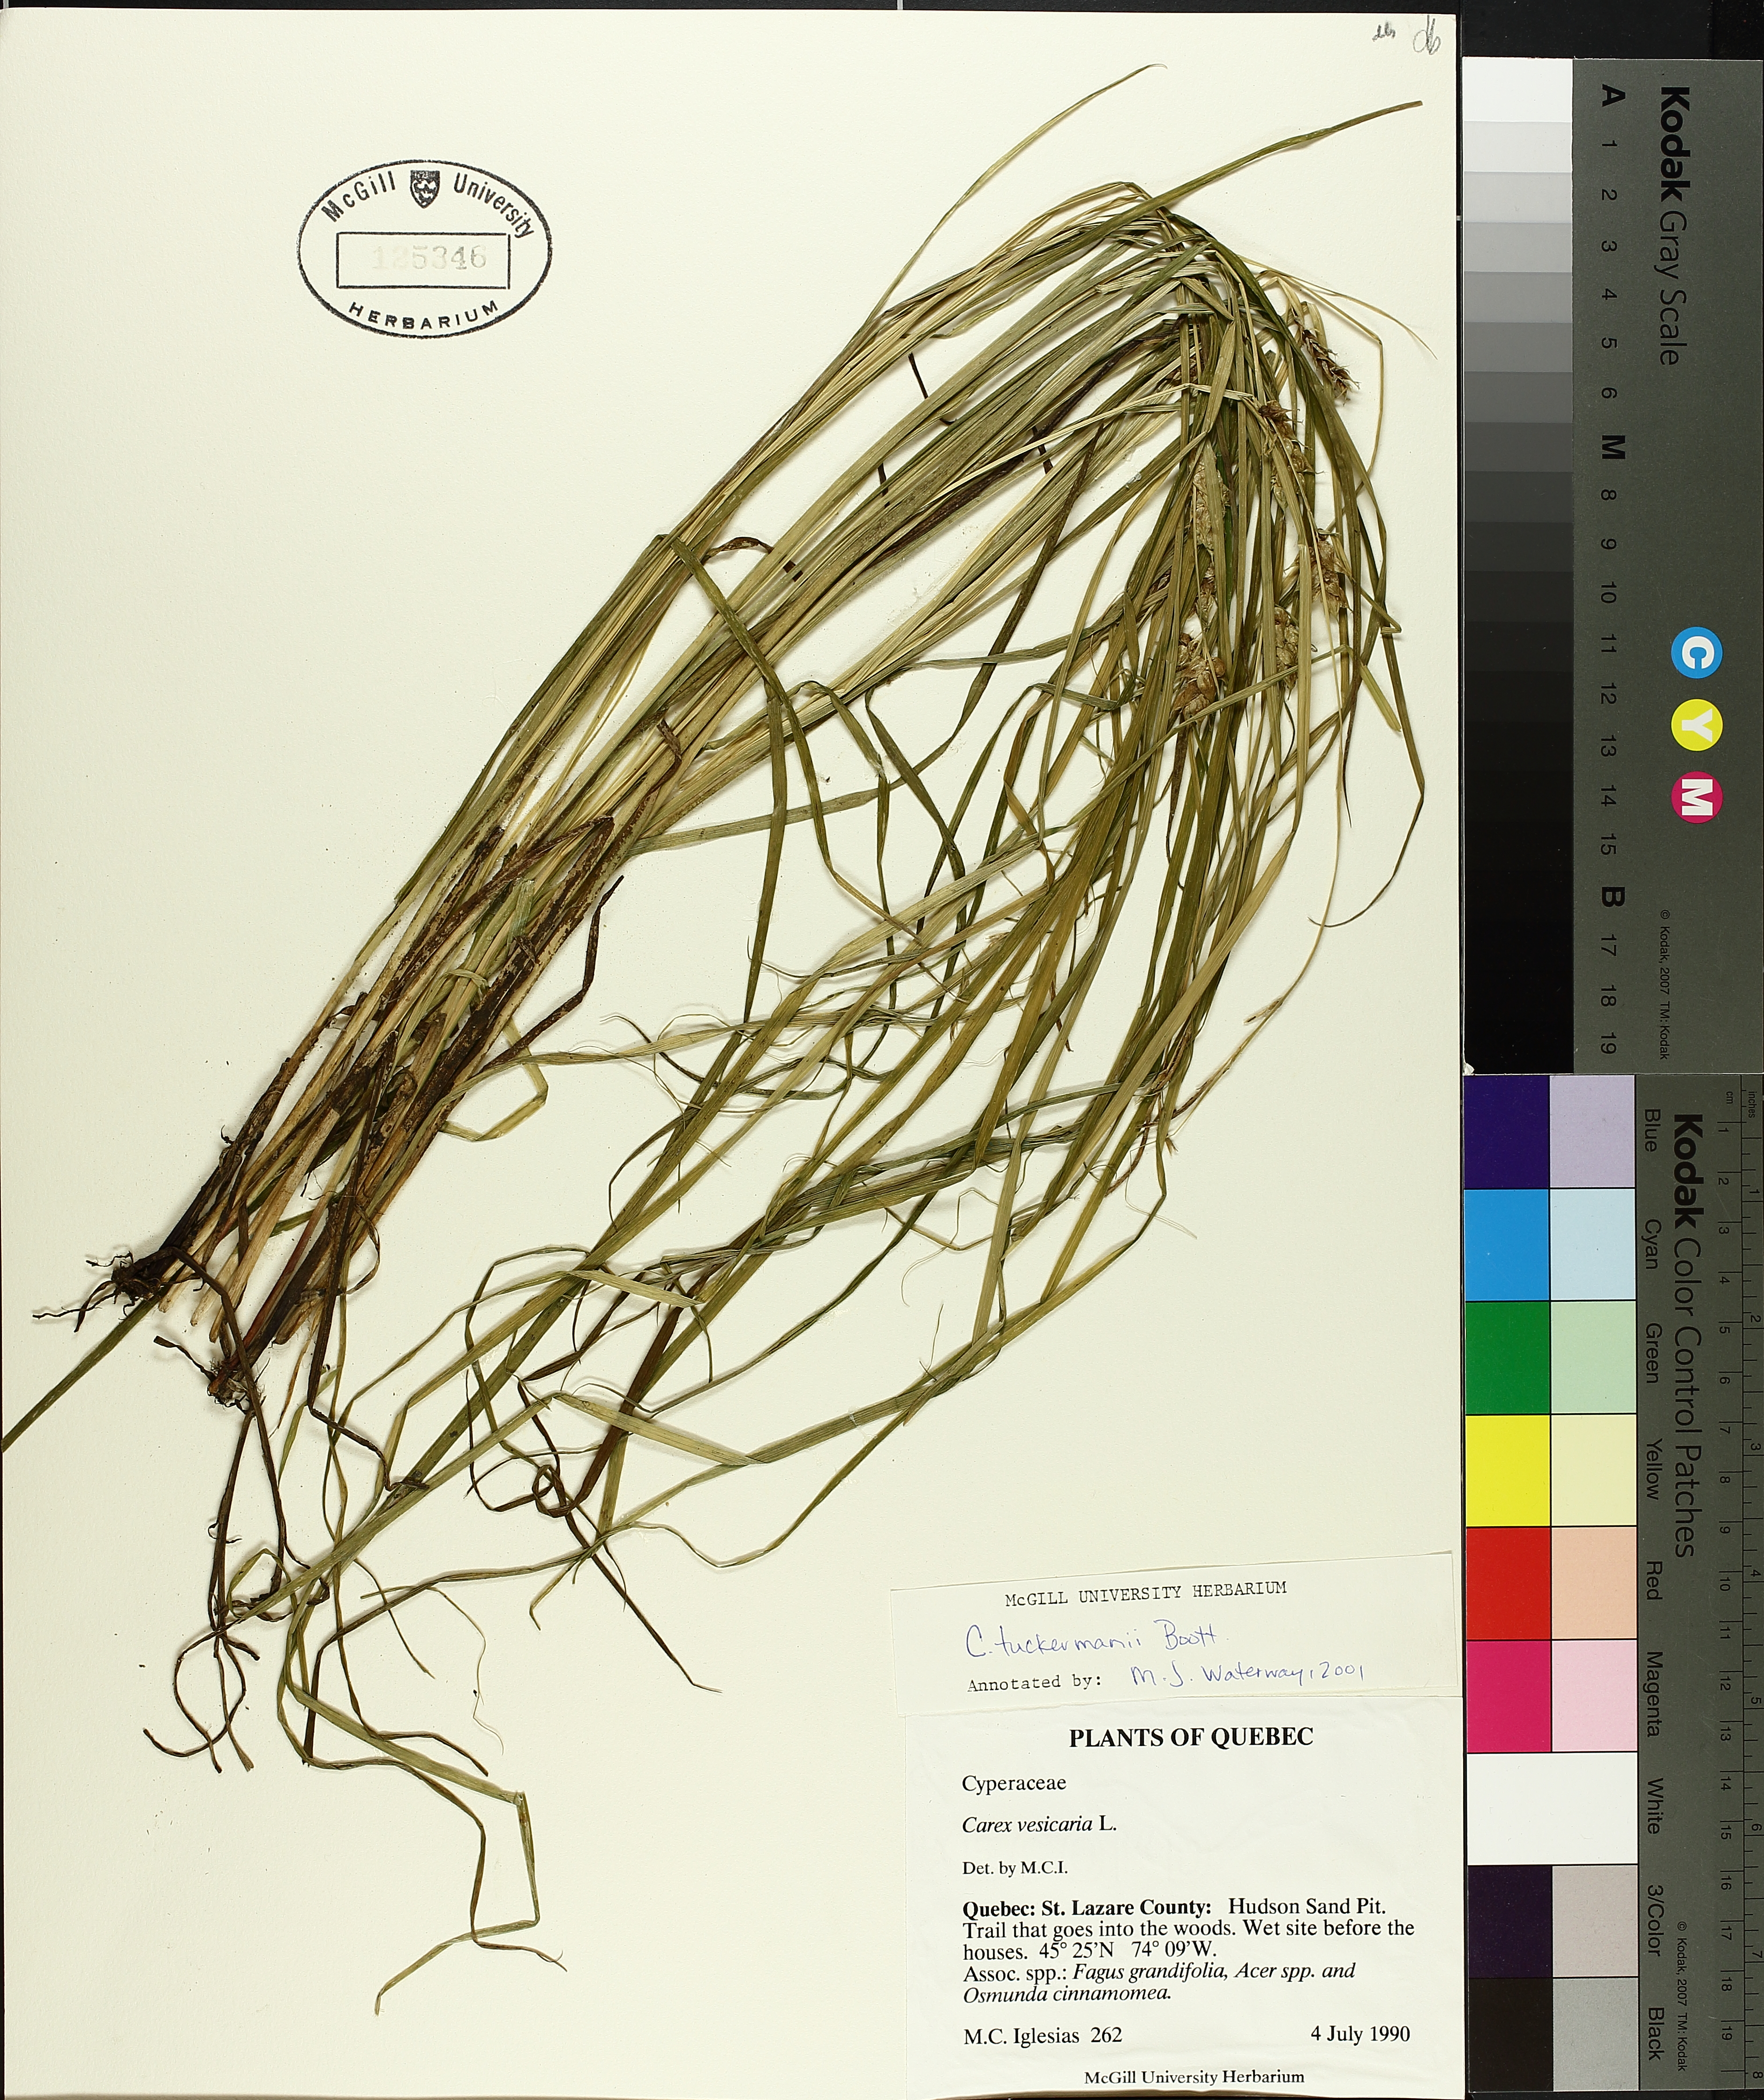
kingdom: Plantae
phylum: Tracheophyta
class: Liliopsida
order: Poales
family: Cyperaceae
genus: Carex
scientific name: Carex tuckermanii
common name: Tuckerman's sedge
